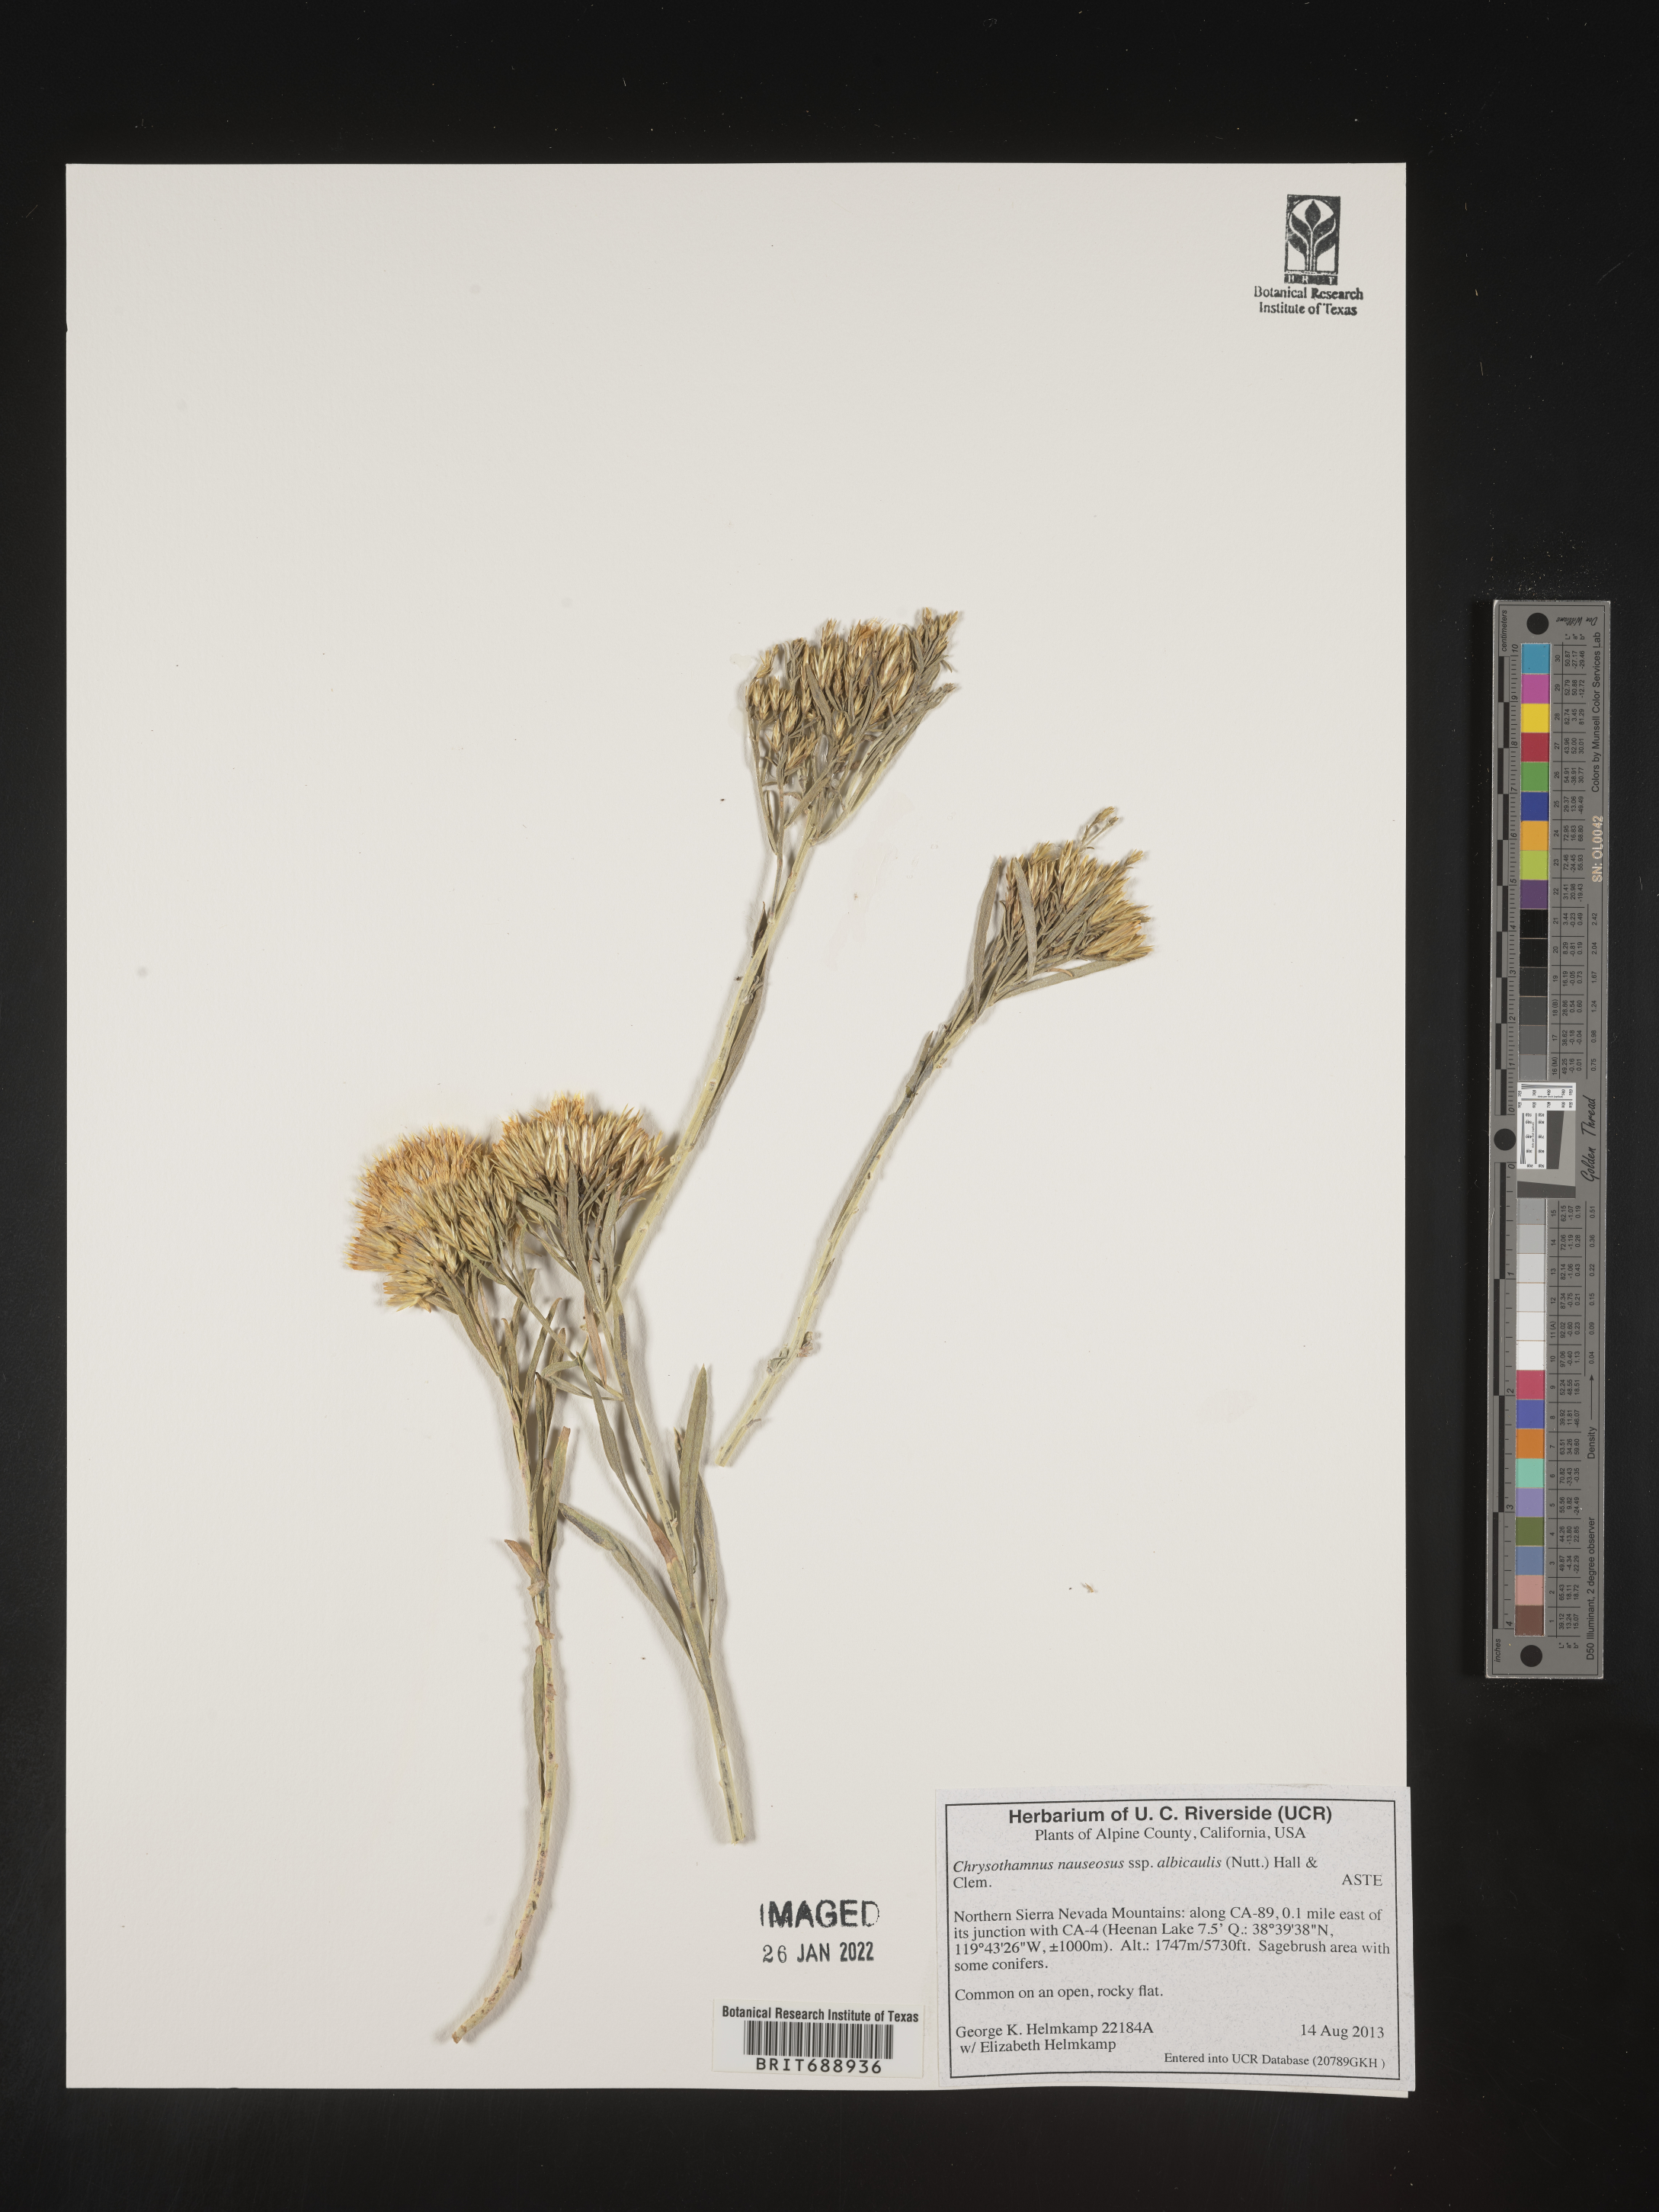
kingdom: Plantae
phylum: Tracheophyta
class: Magnoliopsida
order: Asterales
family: Asteraceae
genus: Ericameria
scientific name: Ericameria nauseosa
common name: Rubber rabbitbrush
